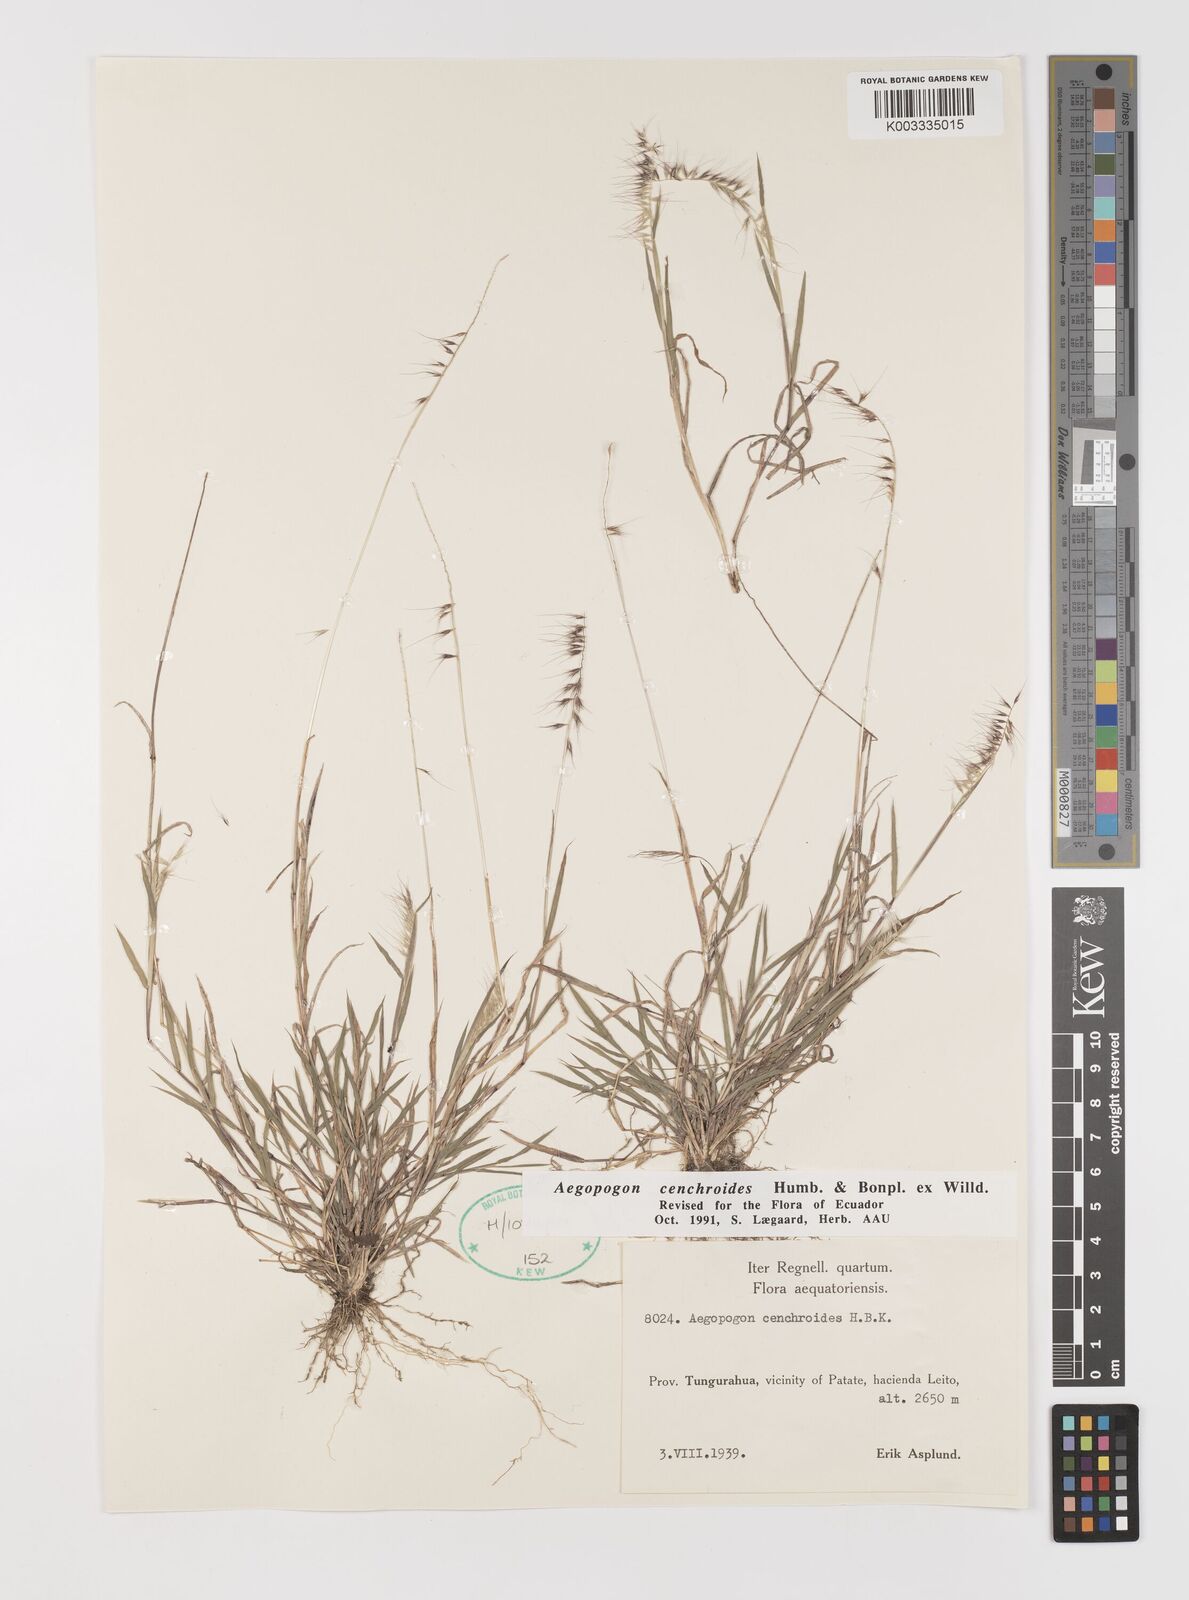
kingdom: Plantae
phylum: Tracheophyta
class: Liliopsida
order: Poales
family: Poaceae
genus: Muhlenbergia
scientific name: Muhlenbergia cenchroides
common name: Relaxgrass
